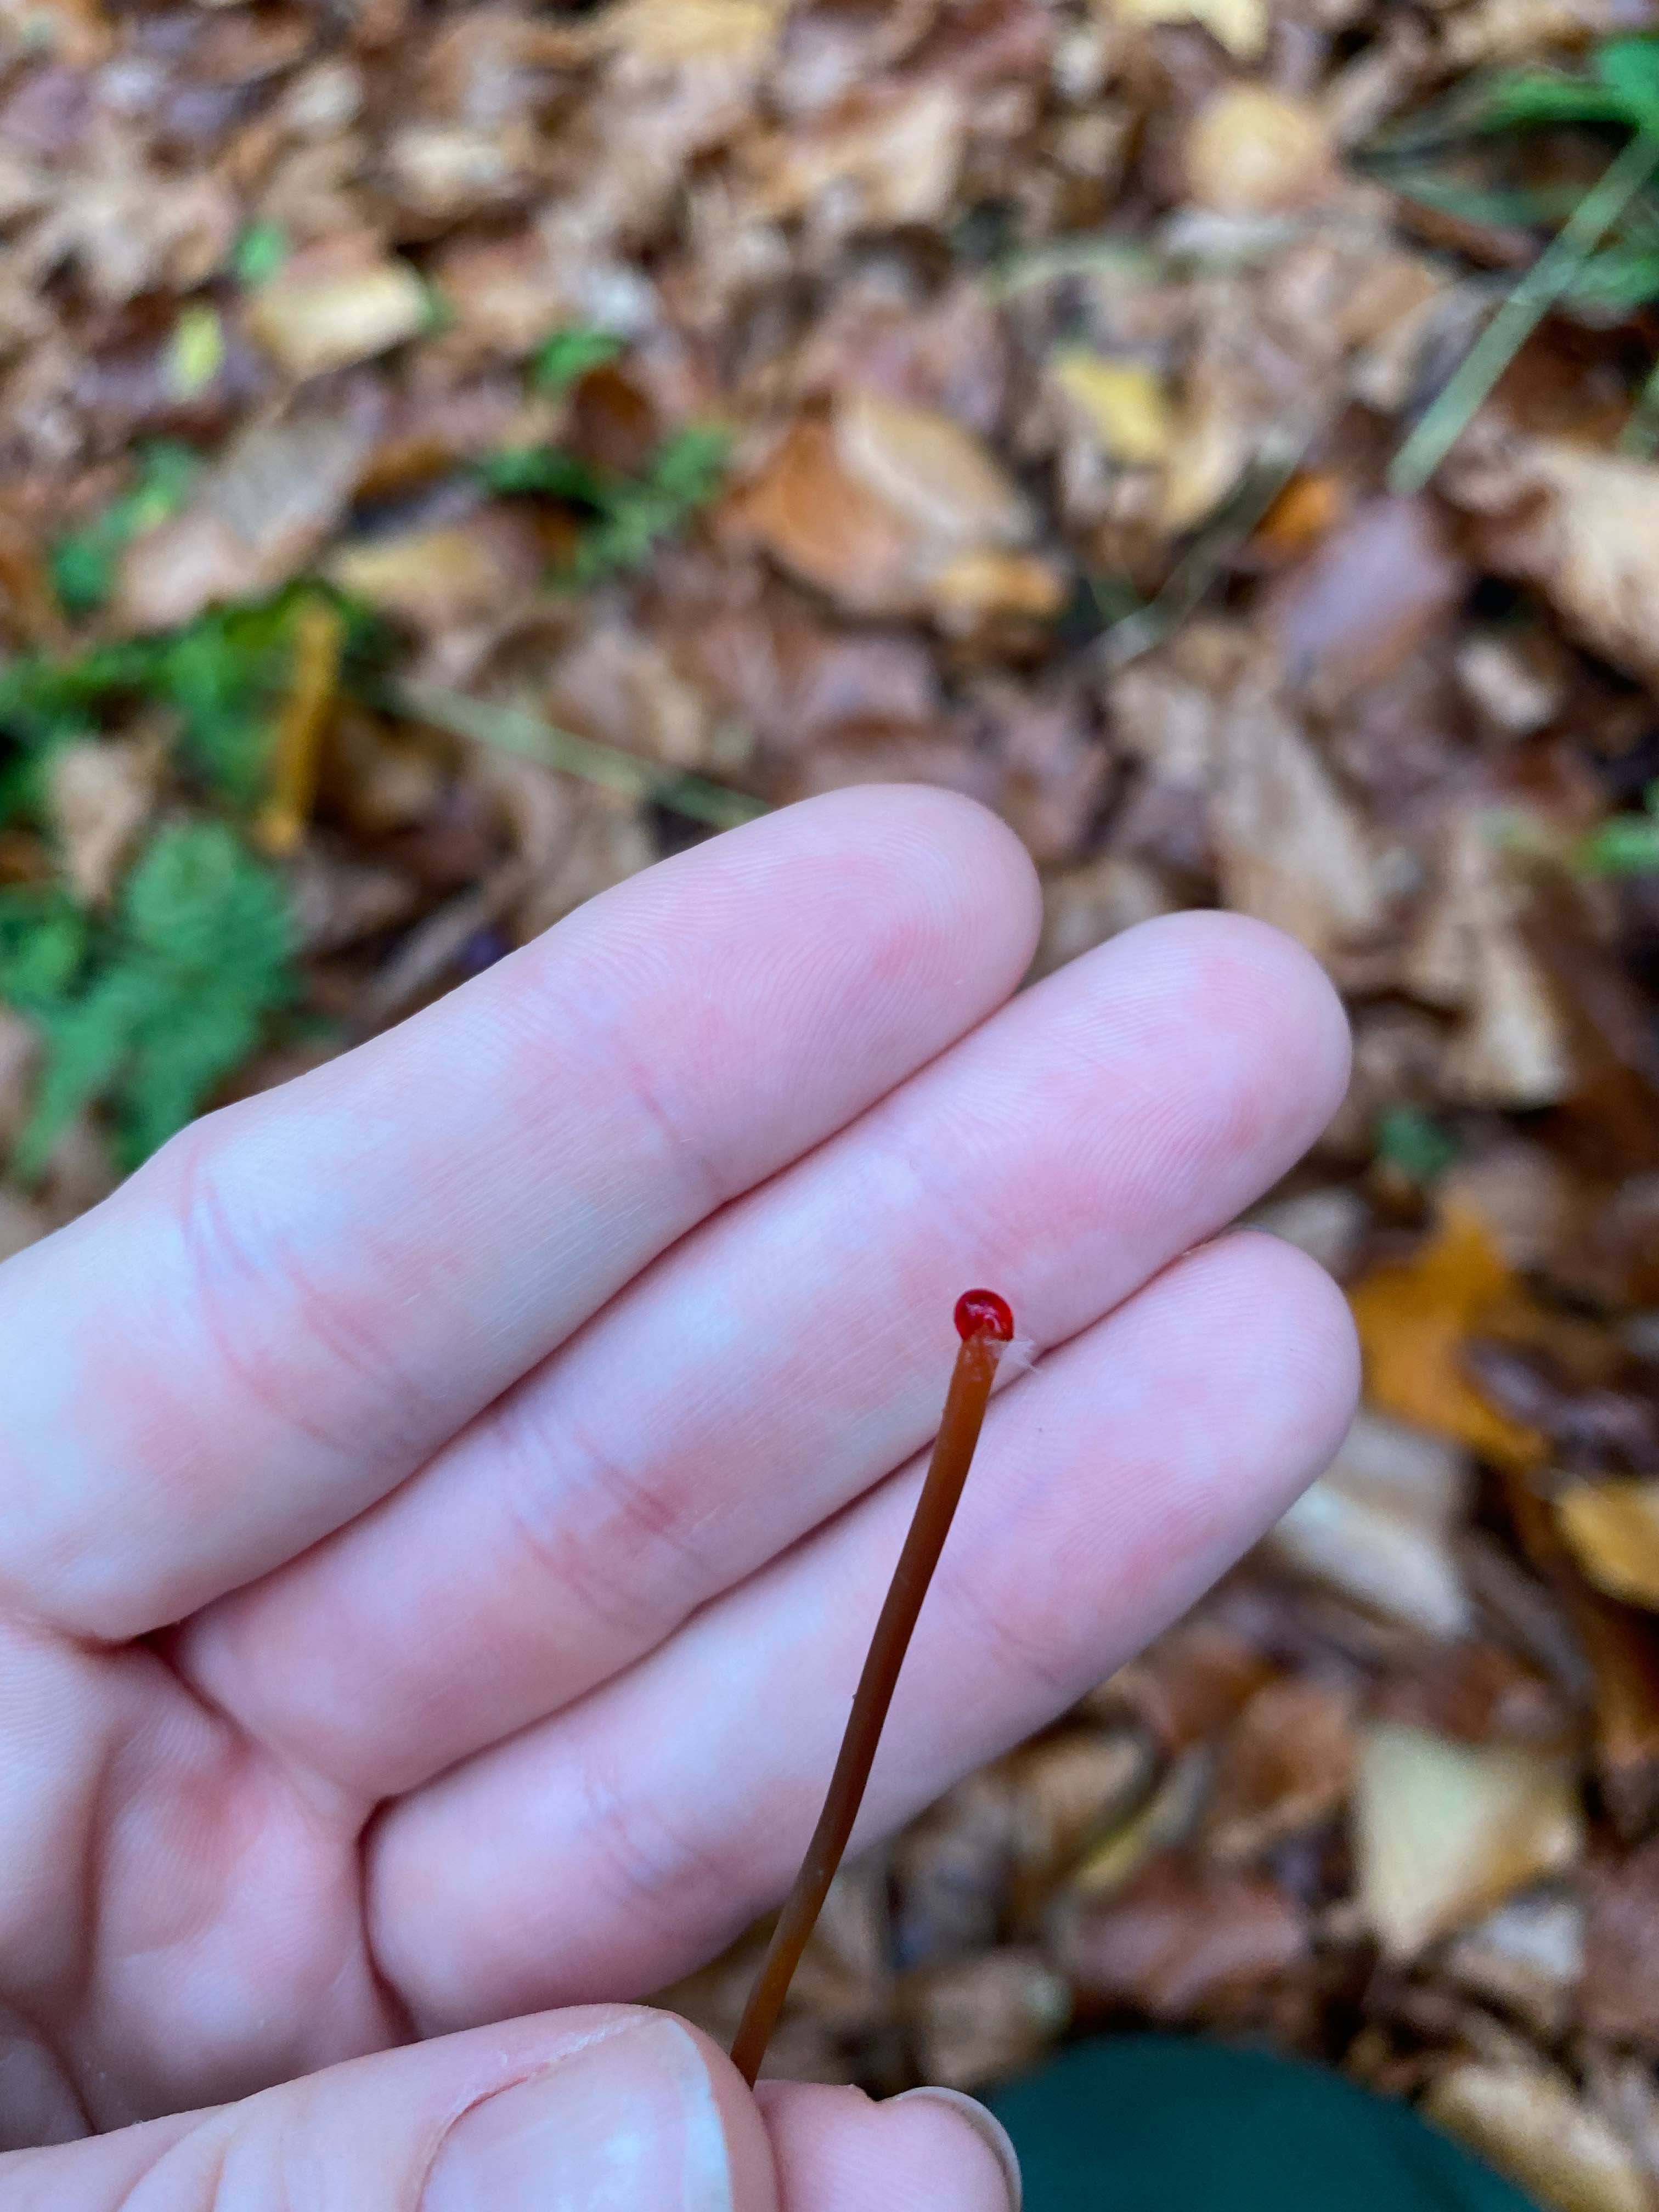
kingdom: Fungi
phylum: Basidiomycota
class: Agaricomycetes
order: Agaricales
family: Mycenaceae
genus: Mycena
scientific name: Mycena crocata
